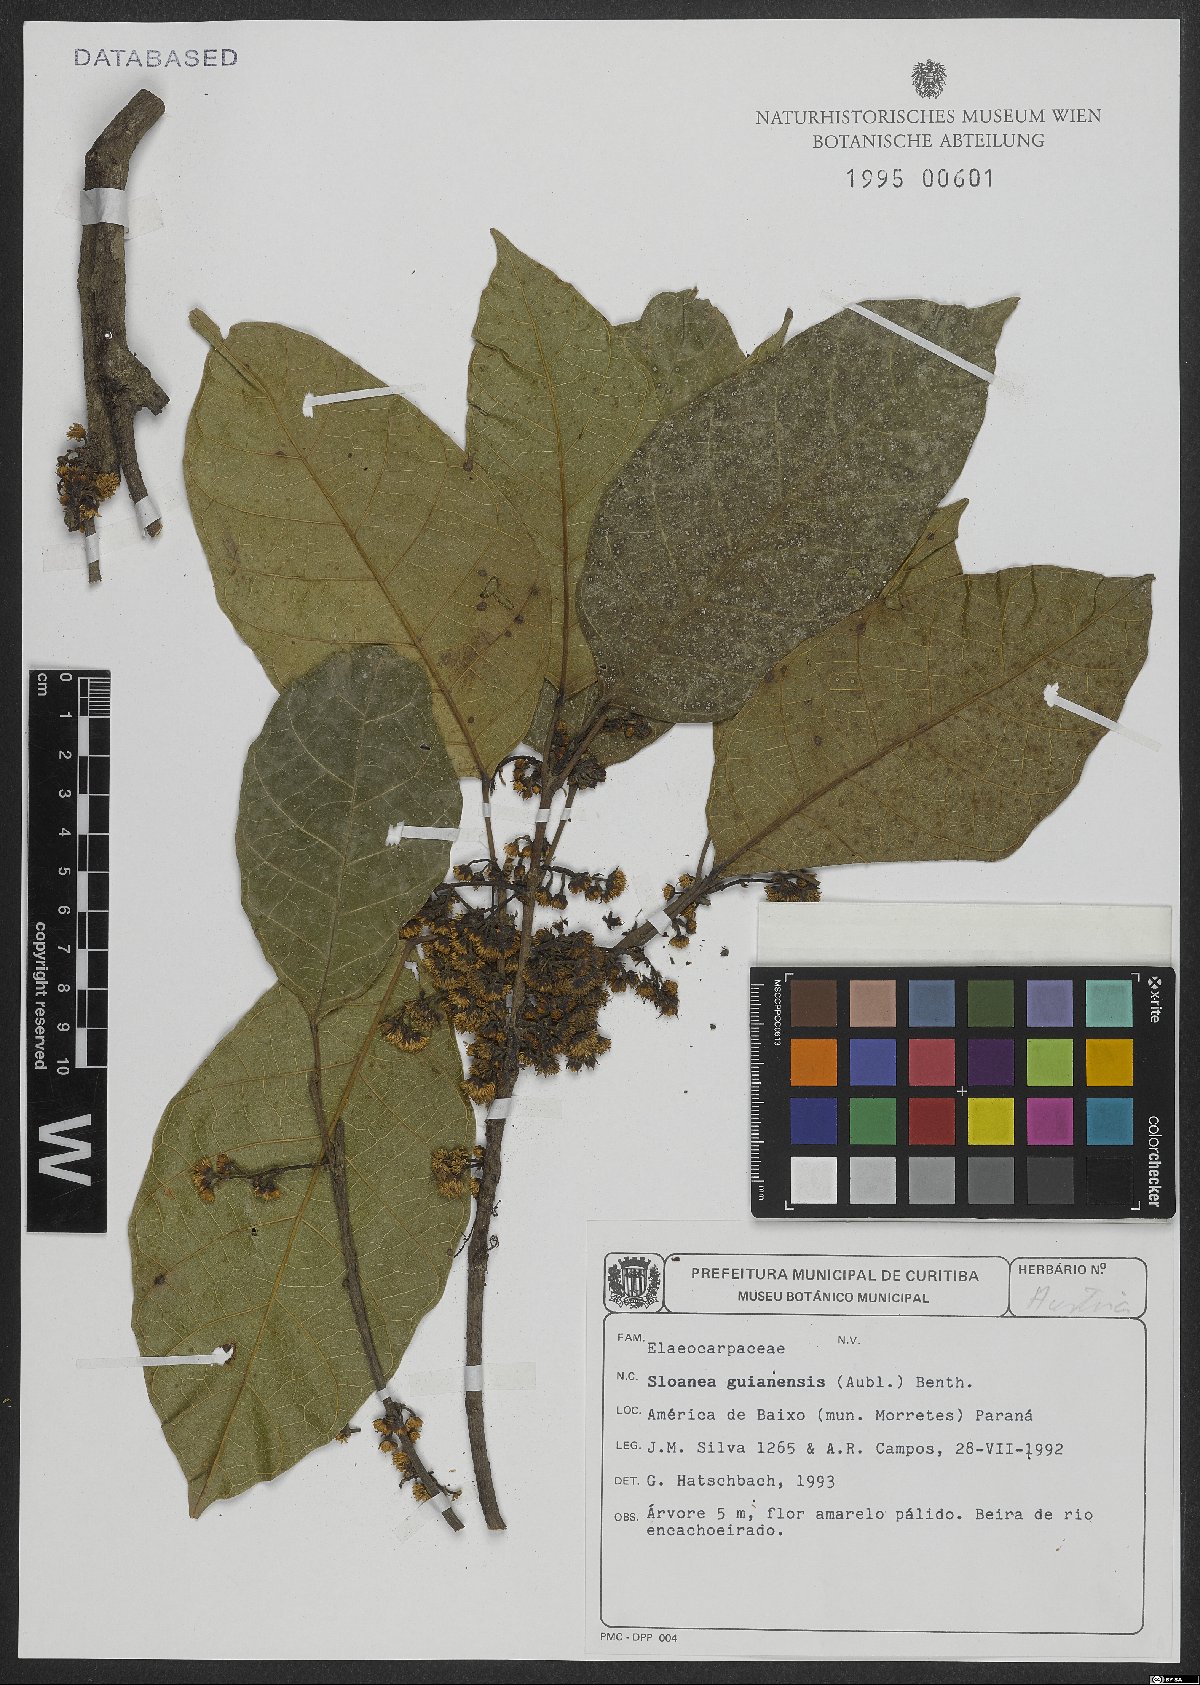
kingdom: Plantae
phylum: Tracheophyta
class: Magnoliopsida
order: Oxalidales
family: Elaeocarpaceae
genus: Sloanea
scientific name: Sloanea guianensis
